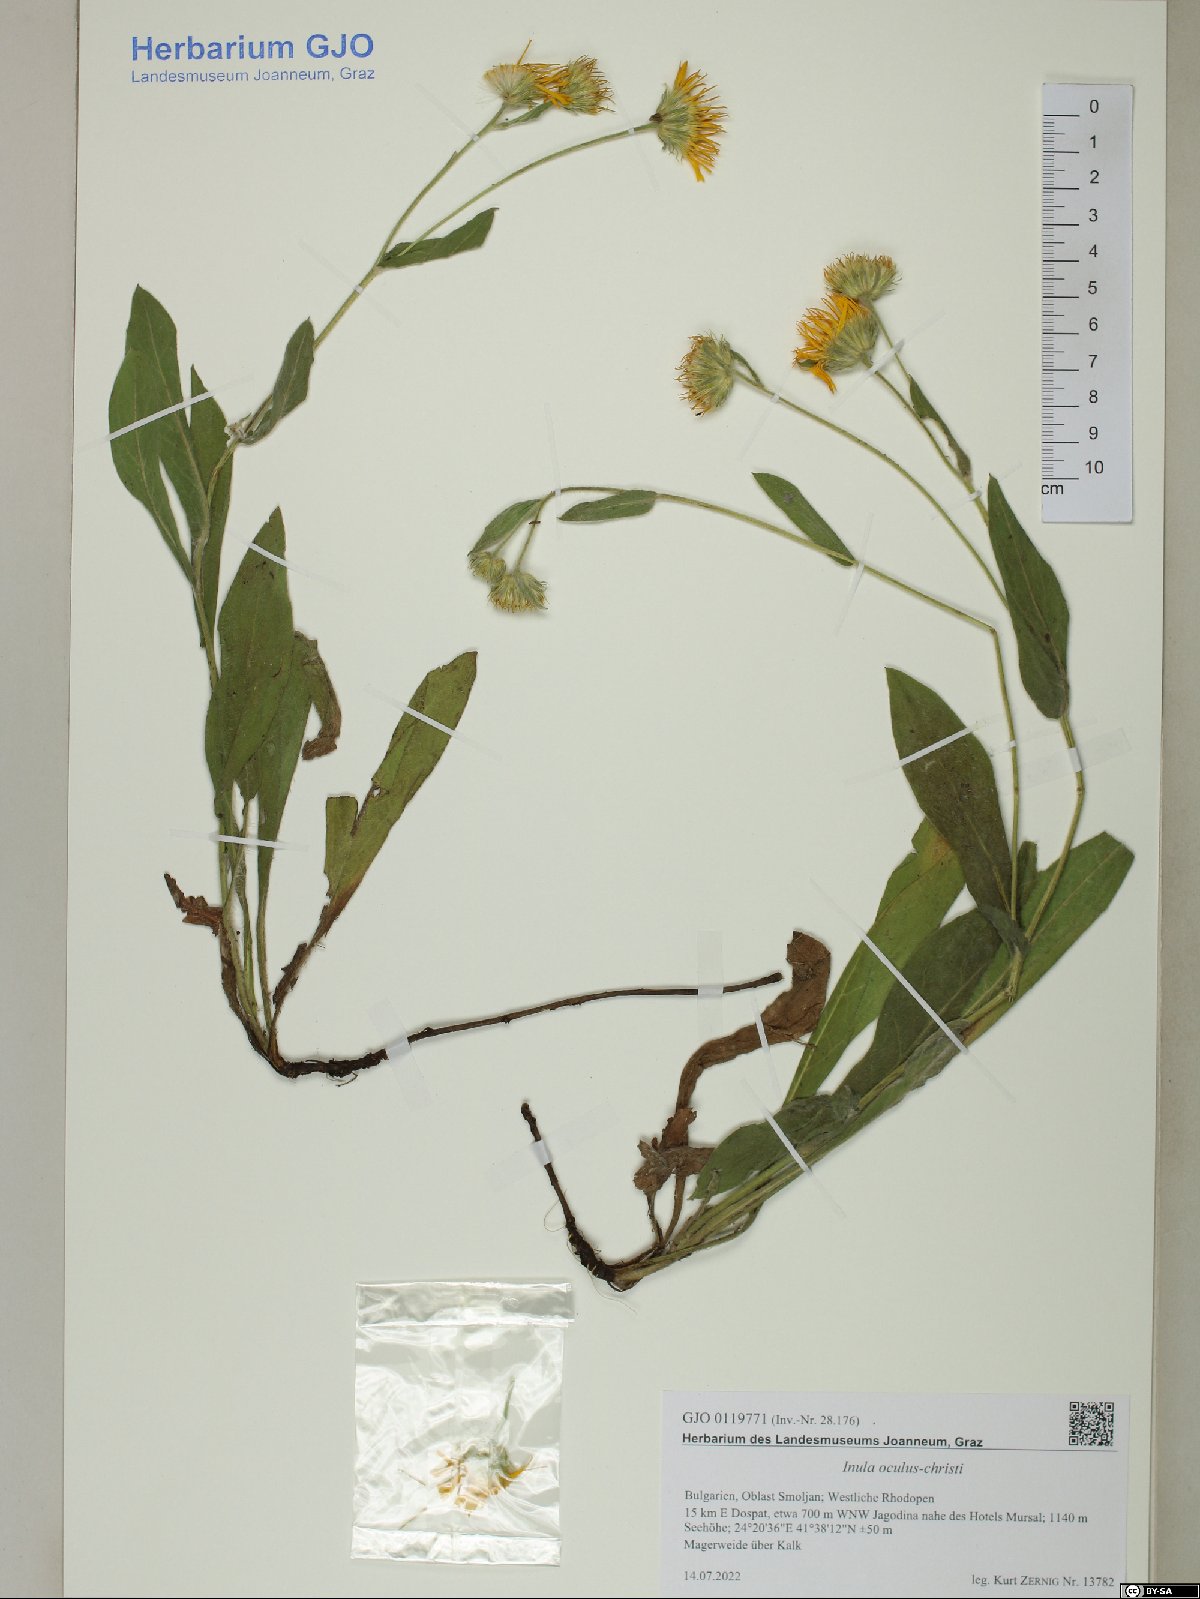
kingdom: Plantae
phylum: Tracheophyta
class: Magnoliopsida
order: Asterales
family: Asteraceae
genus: Pentanema
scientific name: Pentanema oculus-christi
